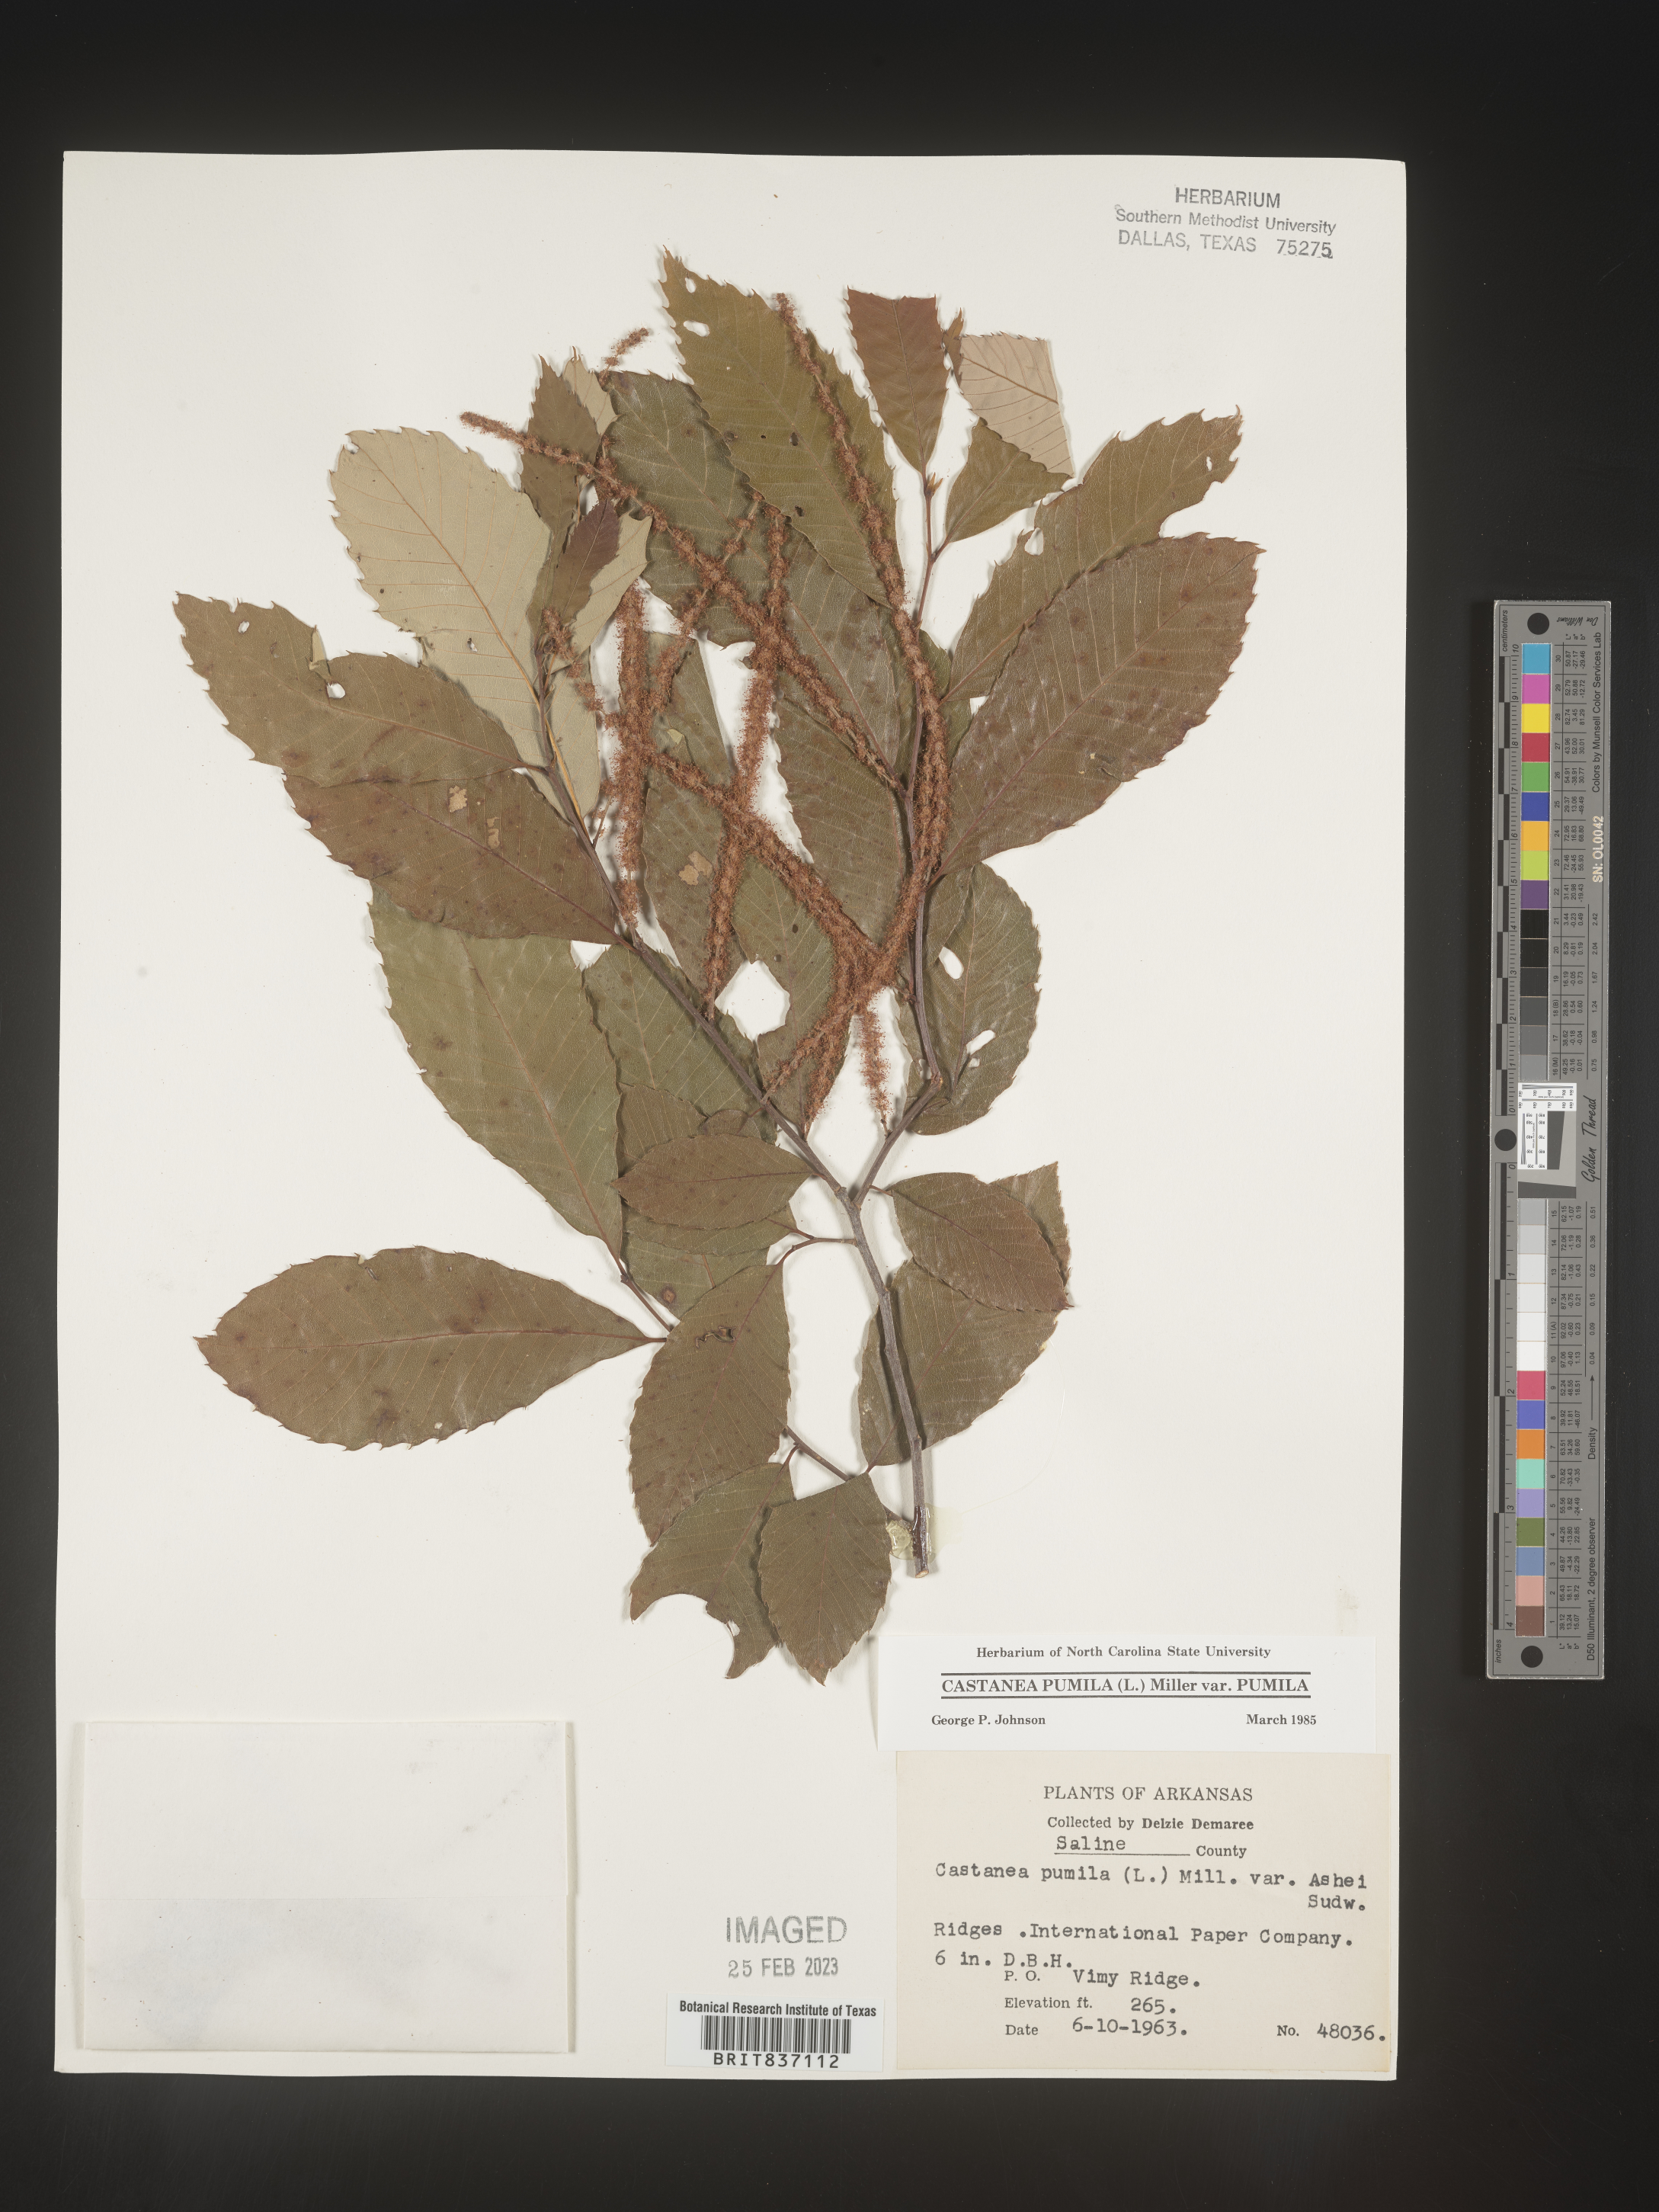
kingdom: Plantae
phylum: Tracheophyta
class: Magnoliopsida
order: Fagales
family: Fagaceae
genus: Castanea
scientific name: Castanea pumila
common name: Chinkapin
